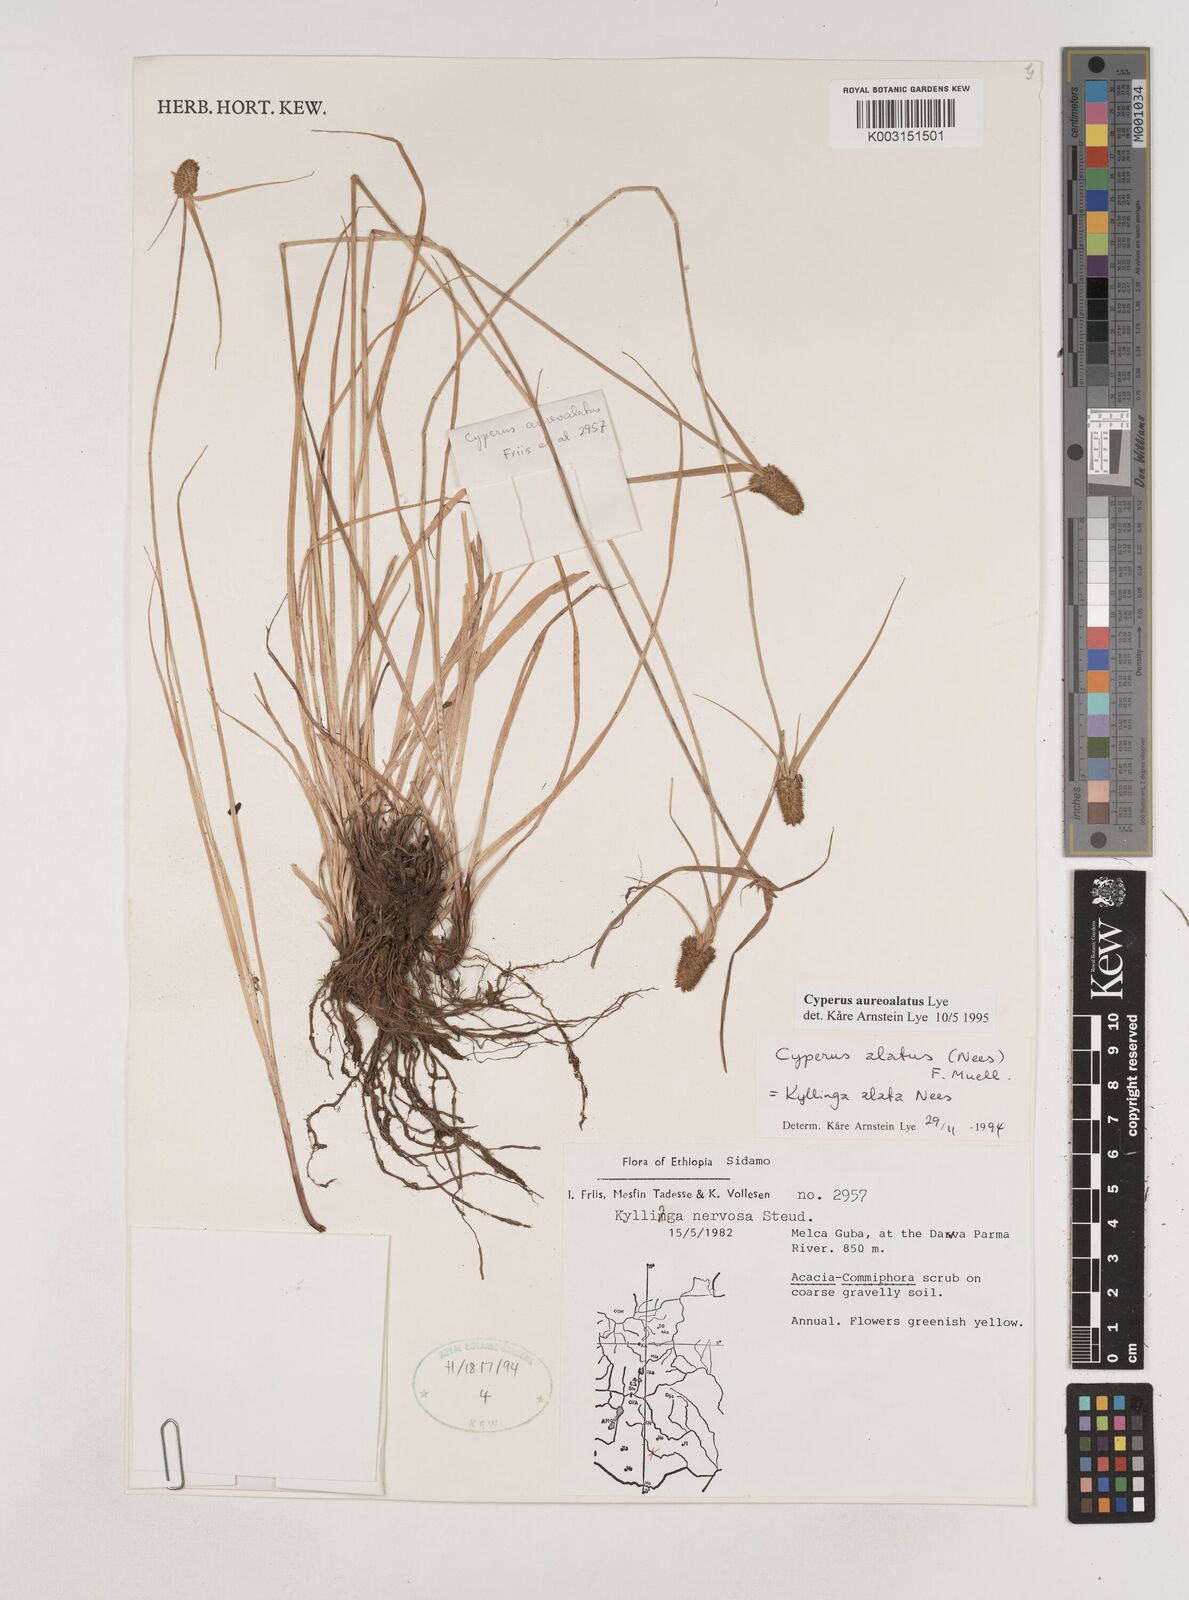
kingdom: Plantae
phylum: Tracheophyta
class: Liliopsida
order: Poales
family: Cyperaceae
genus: Cyperus
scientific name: Cyperus aureoalatus
